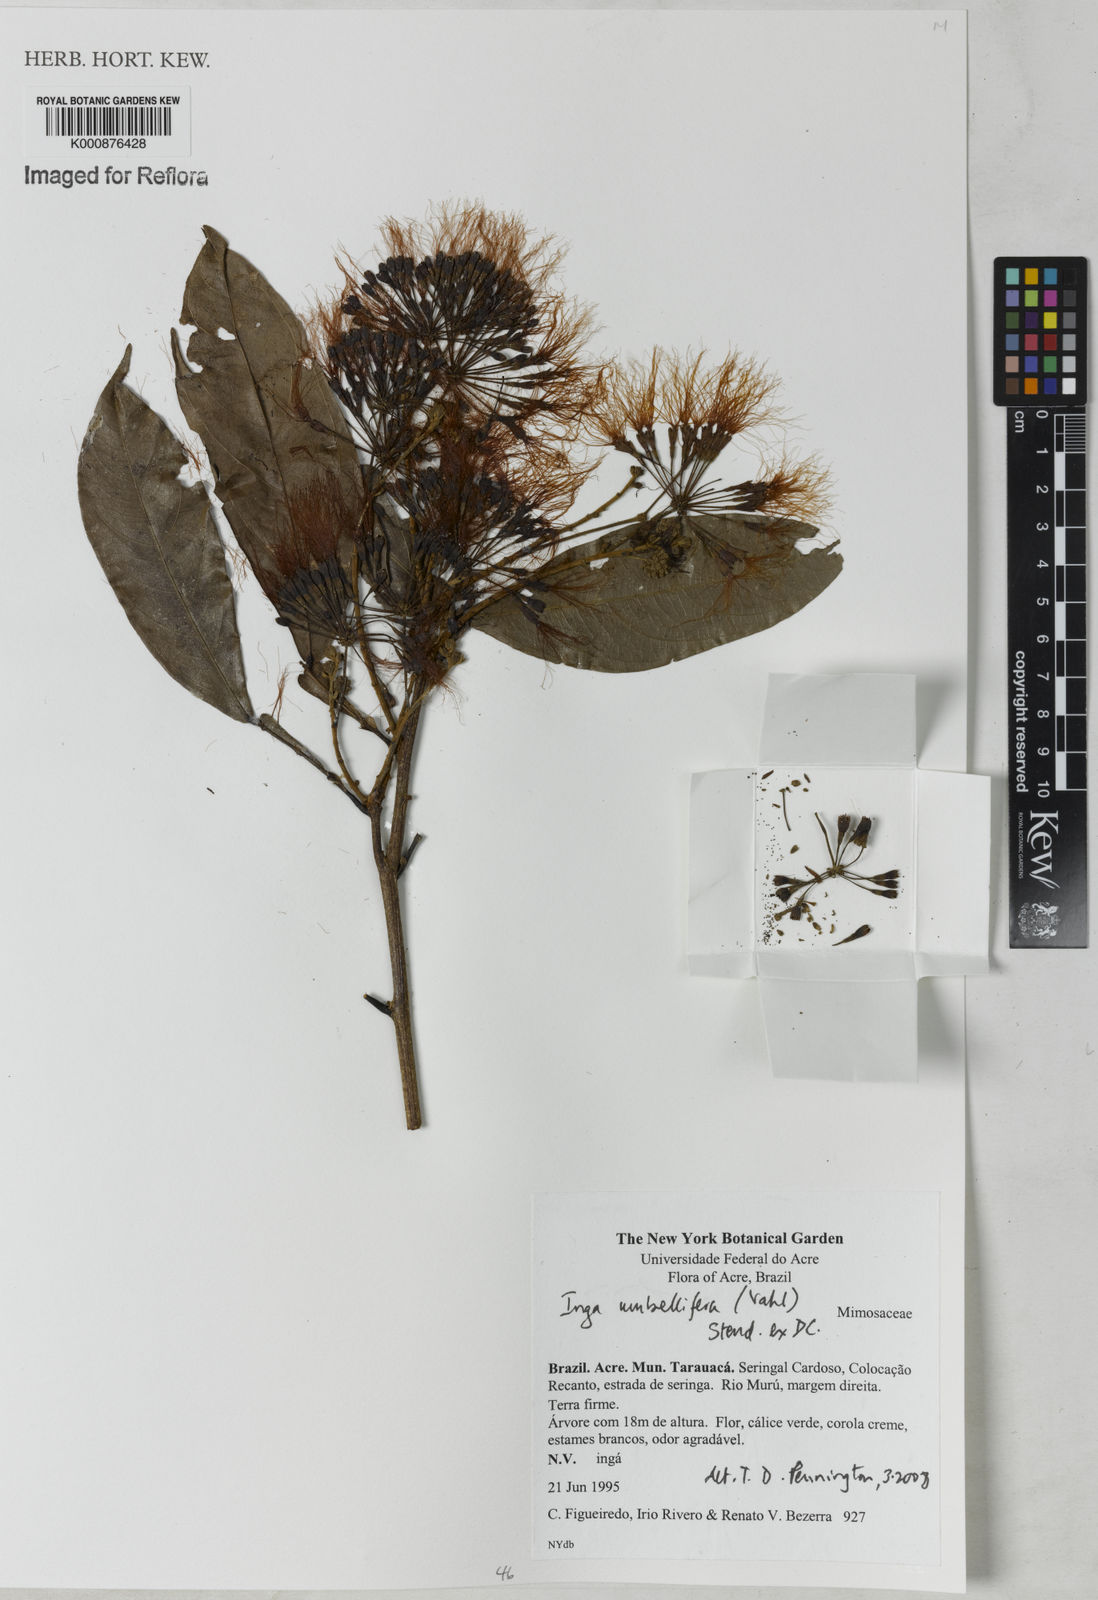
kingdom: Plantae
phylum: Tracheophyta
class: Magnoliopsida
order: Fabales
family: Fabaceae
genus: Inga
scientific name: Inga umbellifera
